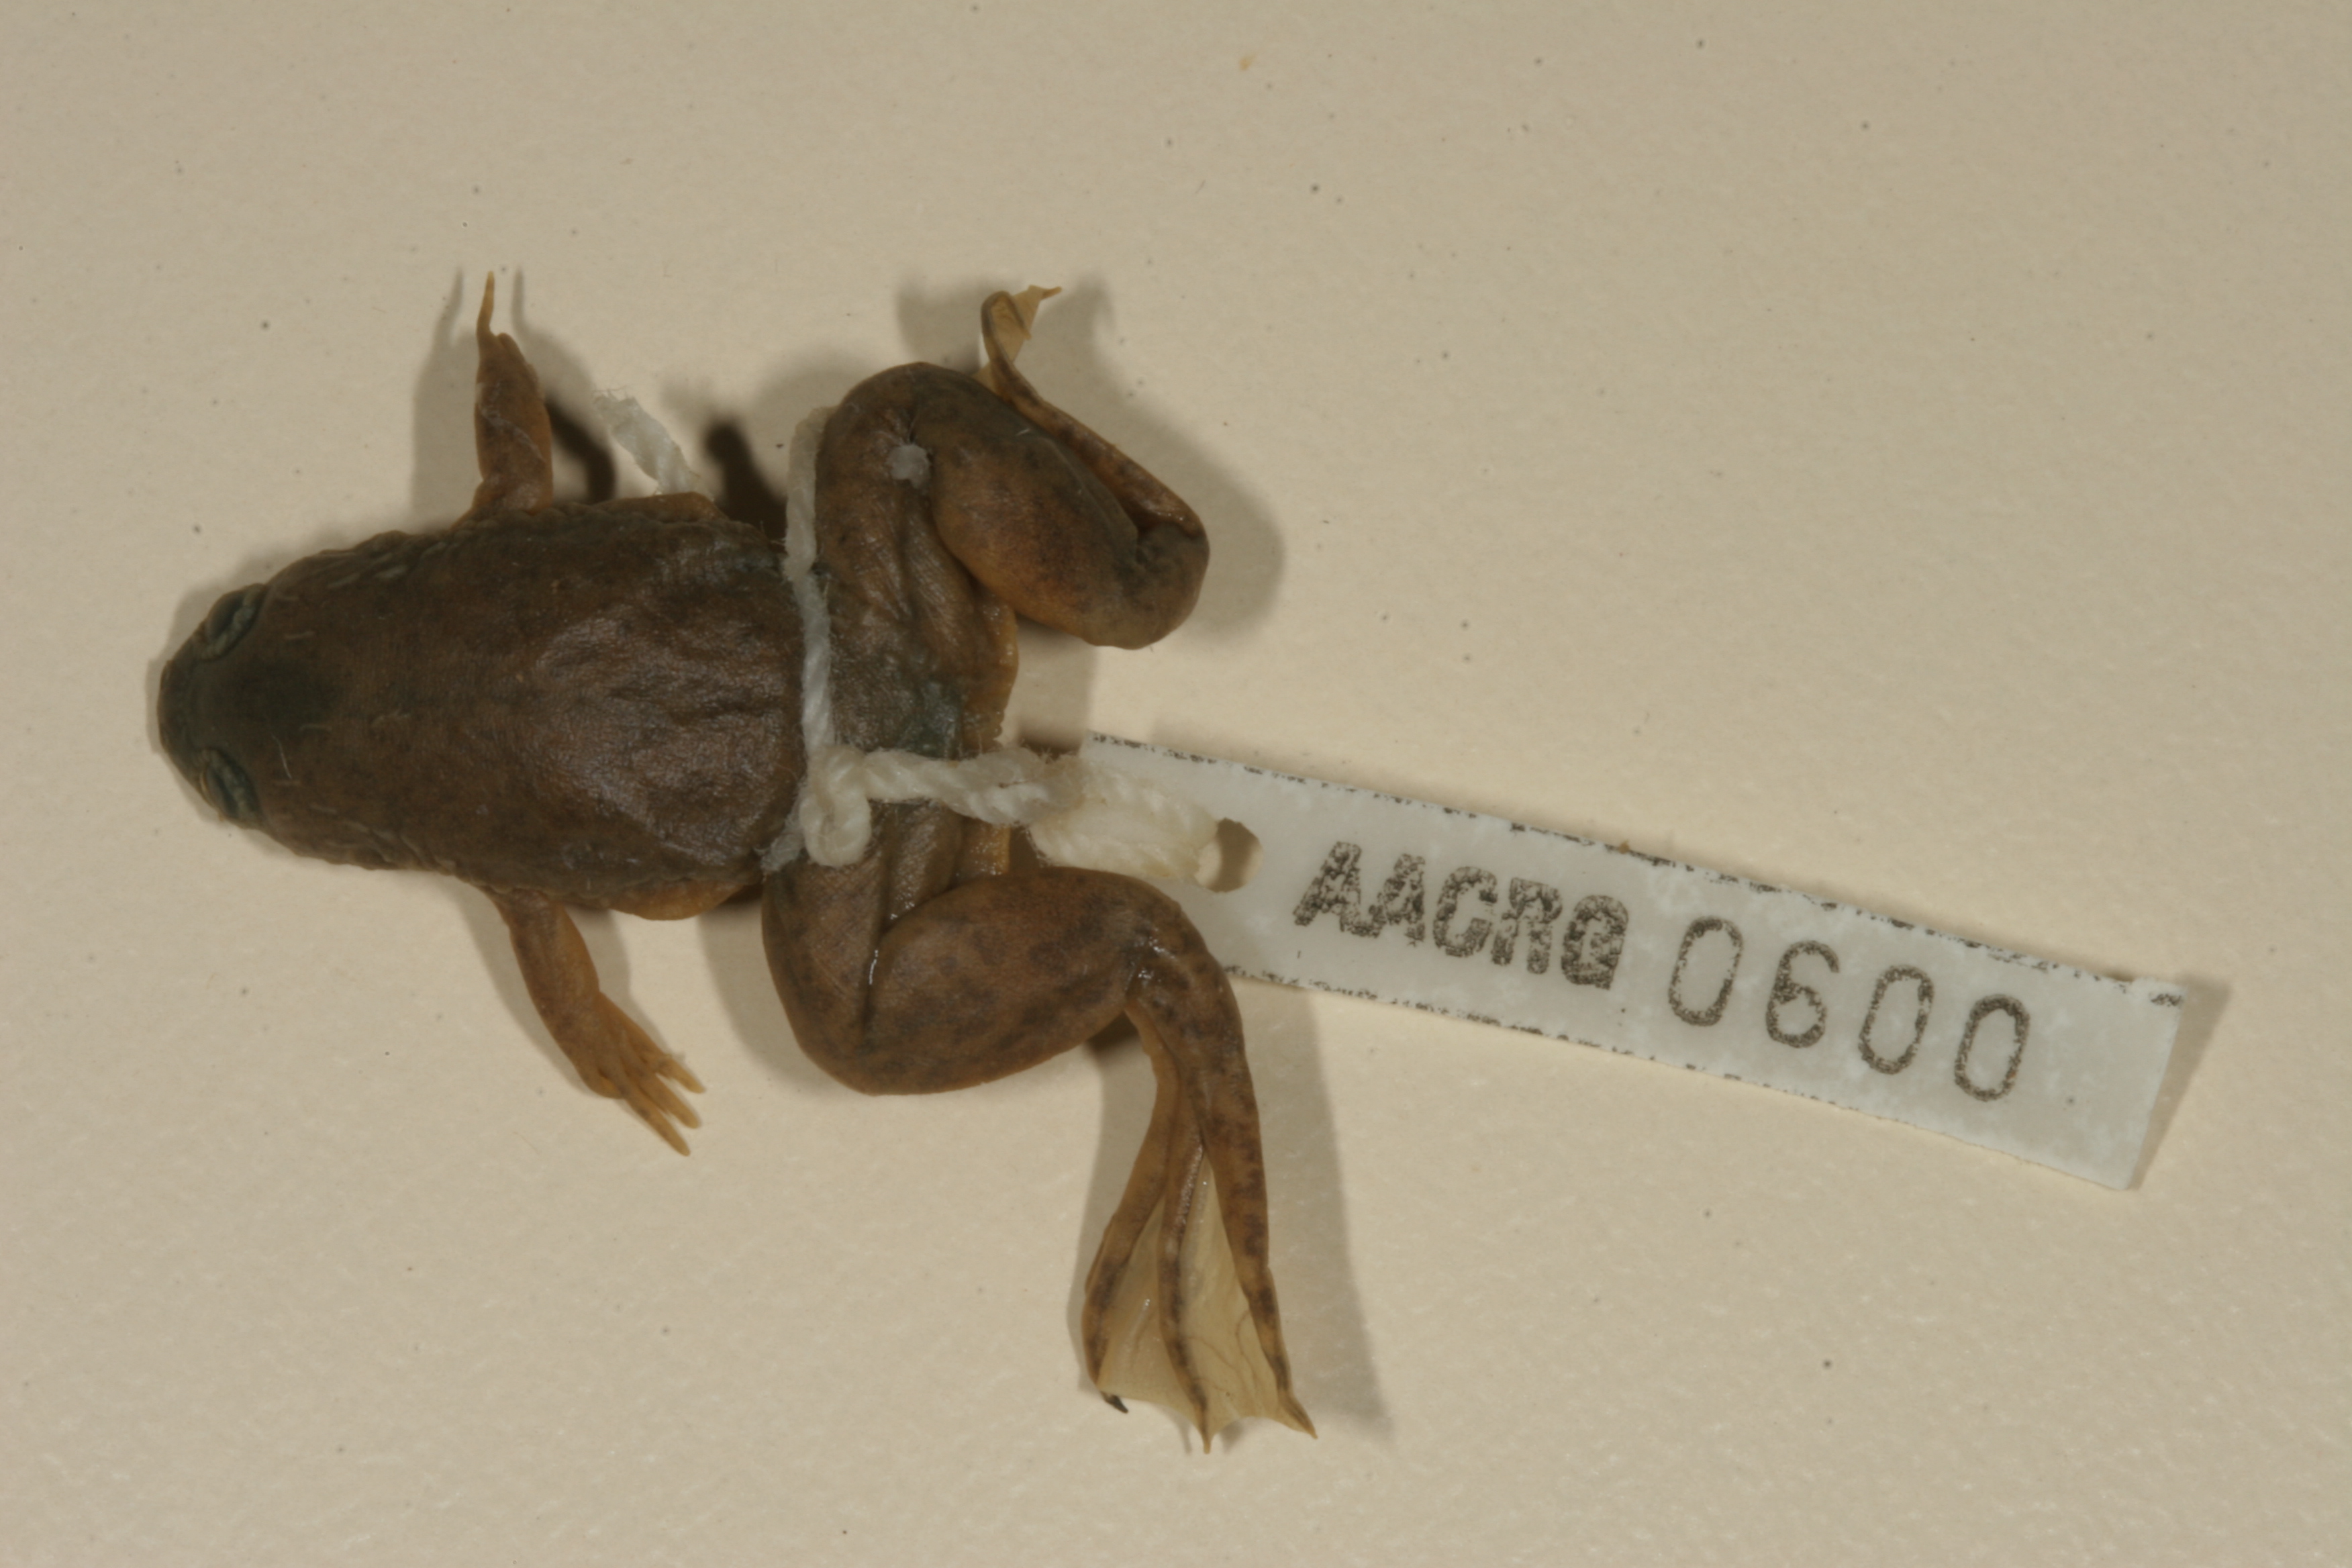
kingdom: Animalia
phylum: Chordata
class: Amphibia
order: Anura
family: Pipidae
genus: Xenopus
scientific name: Xenopus laevis
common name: African clawed frog
